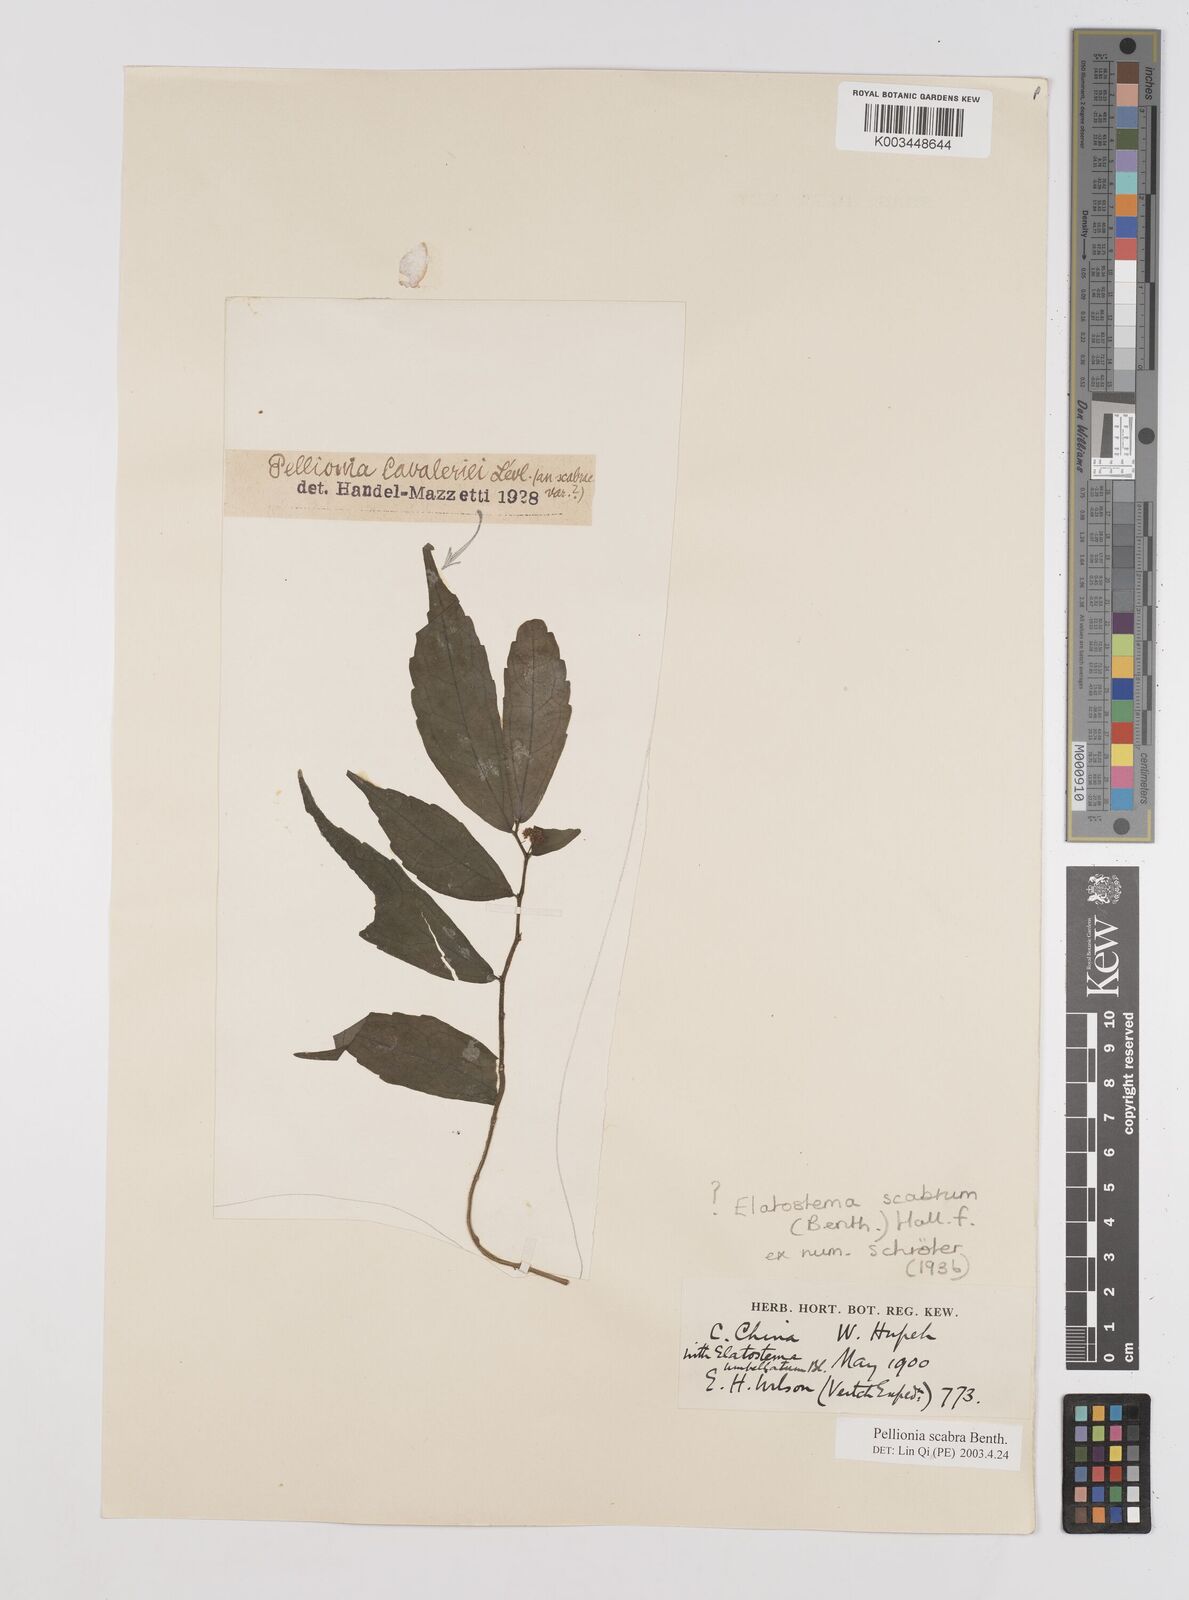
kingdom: Plantae
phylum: Tracheophyta
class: Magnoliopsida
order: Rosales
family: Urticaceae
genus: Elatostema
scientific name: Elatostema
